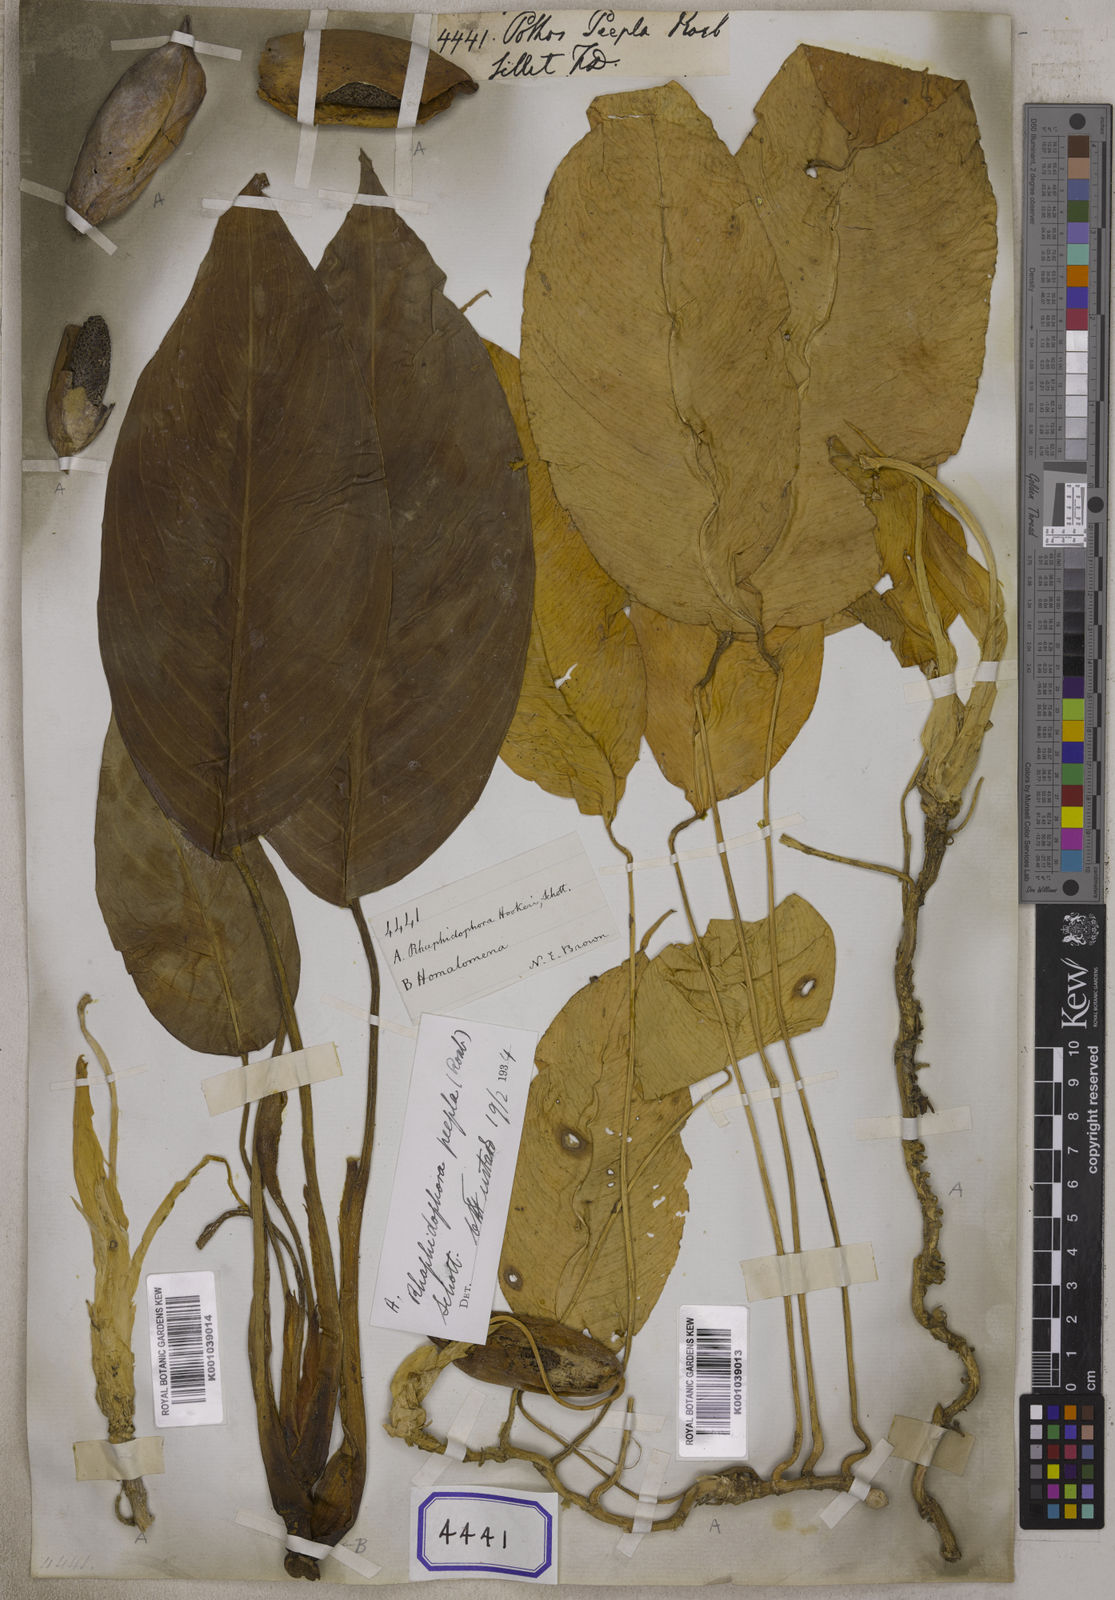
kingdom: Plantae
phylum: Tracheophyta
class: Liliopsida
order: Alismatales
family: Araceae
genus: Rhaphidophora
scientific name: Rhaphidophora peepla
